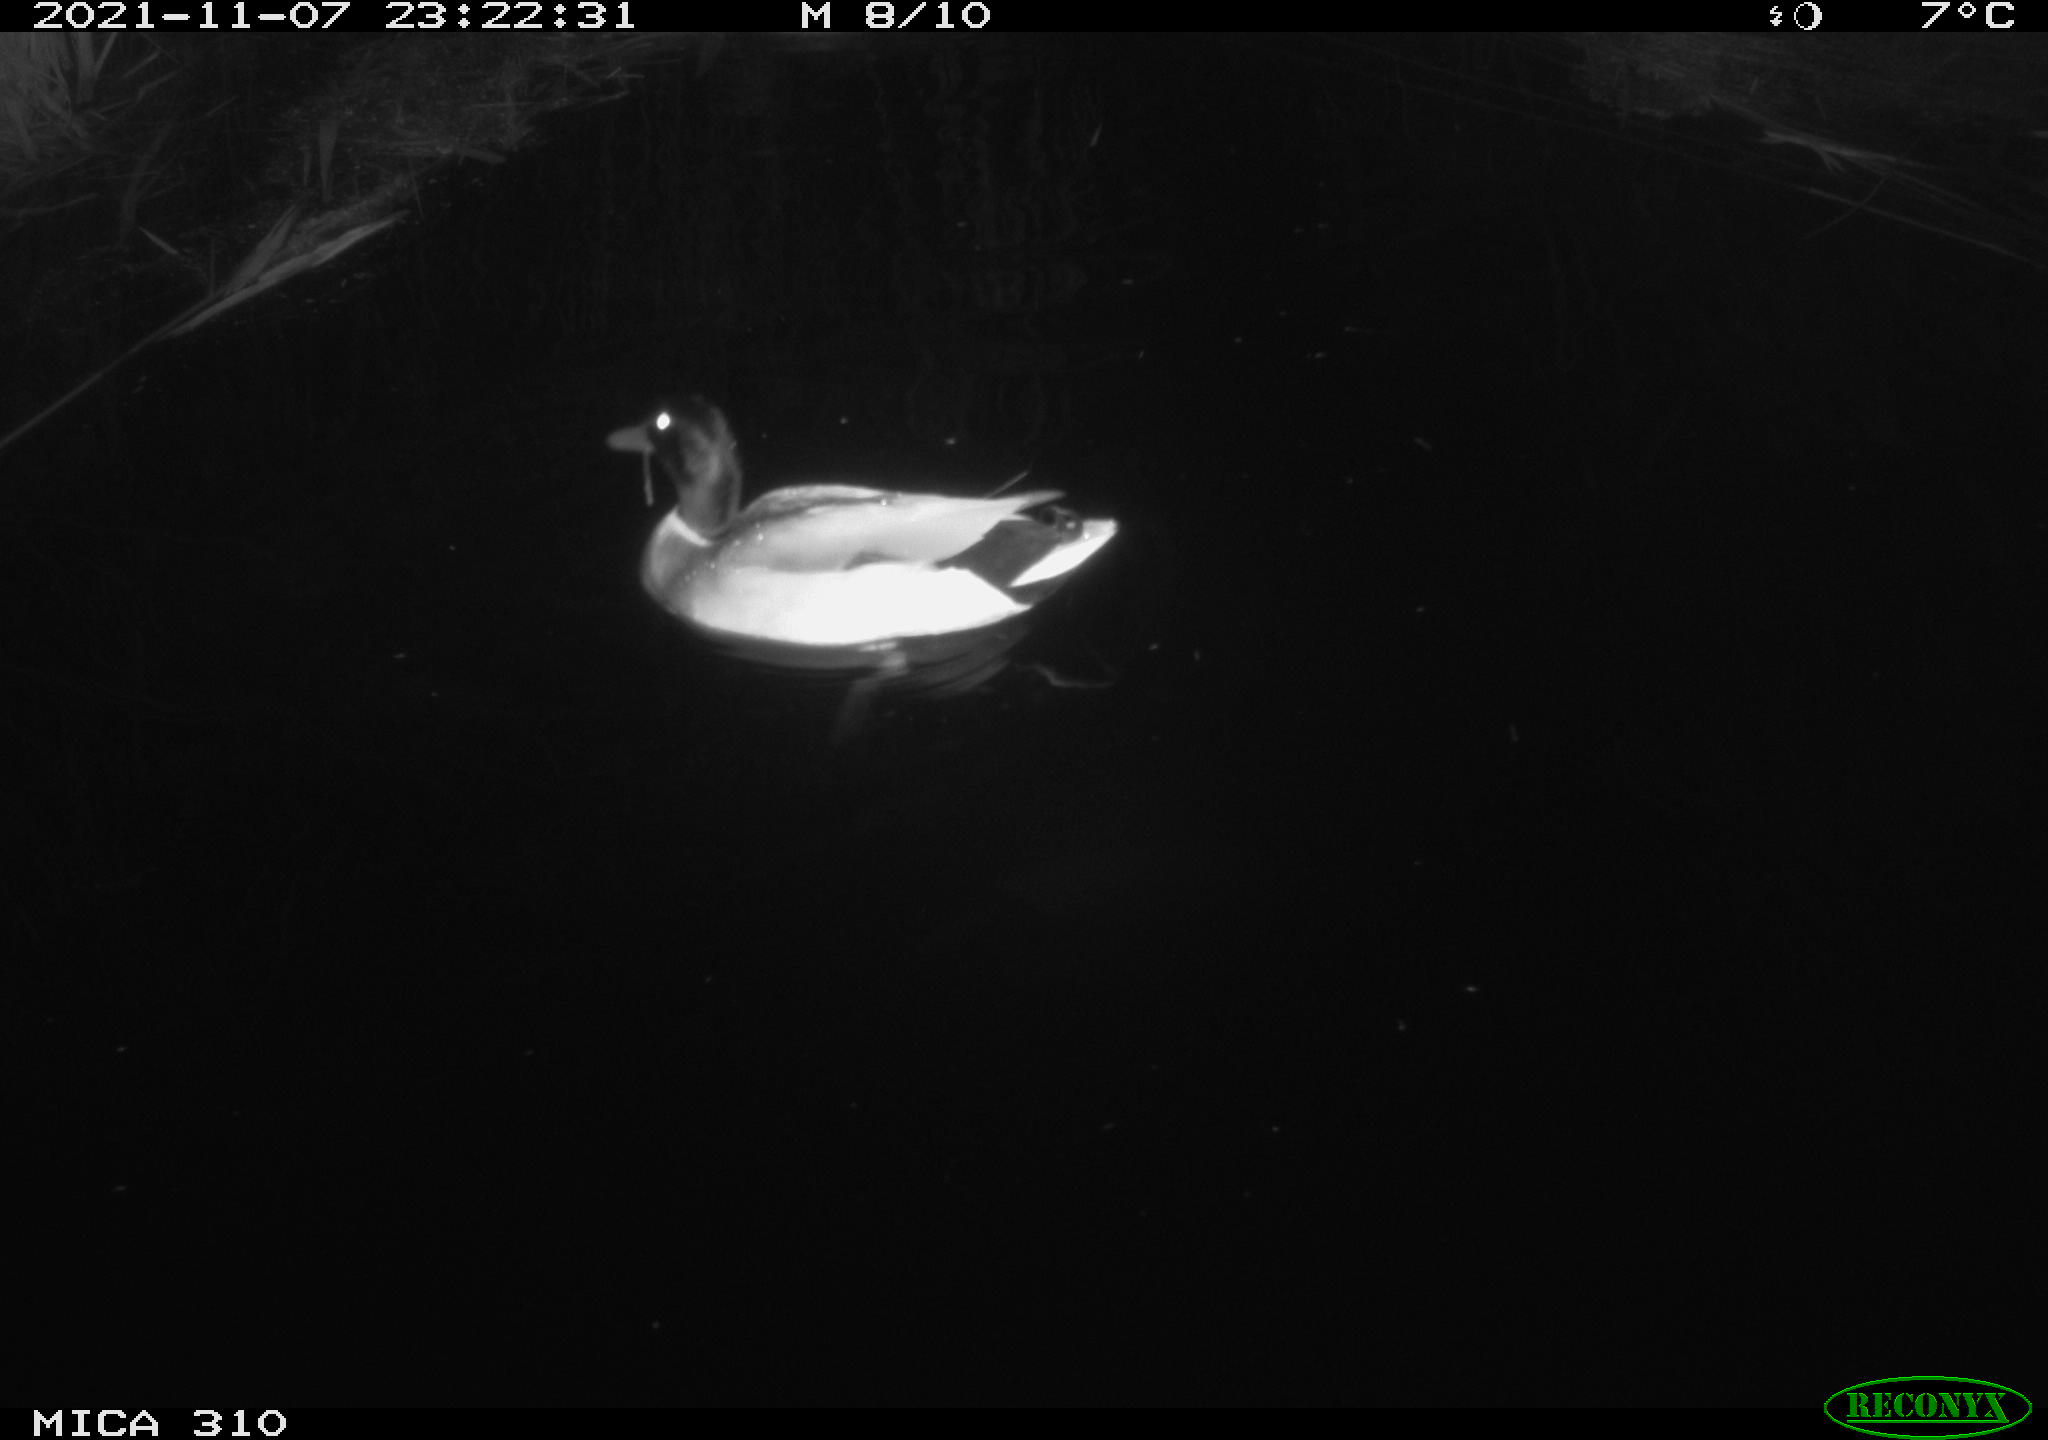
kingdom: Animalia
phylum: Chordata
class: Aves
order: Gruiformes
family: Rallidae
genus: Gallinula
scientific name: Gallinula chloropus
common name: Common moorhen
